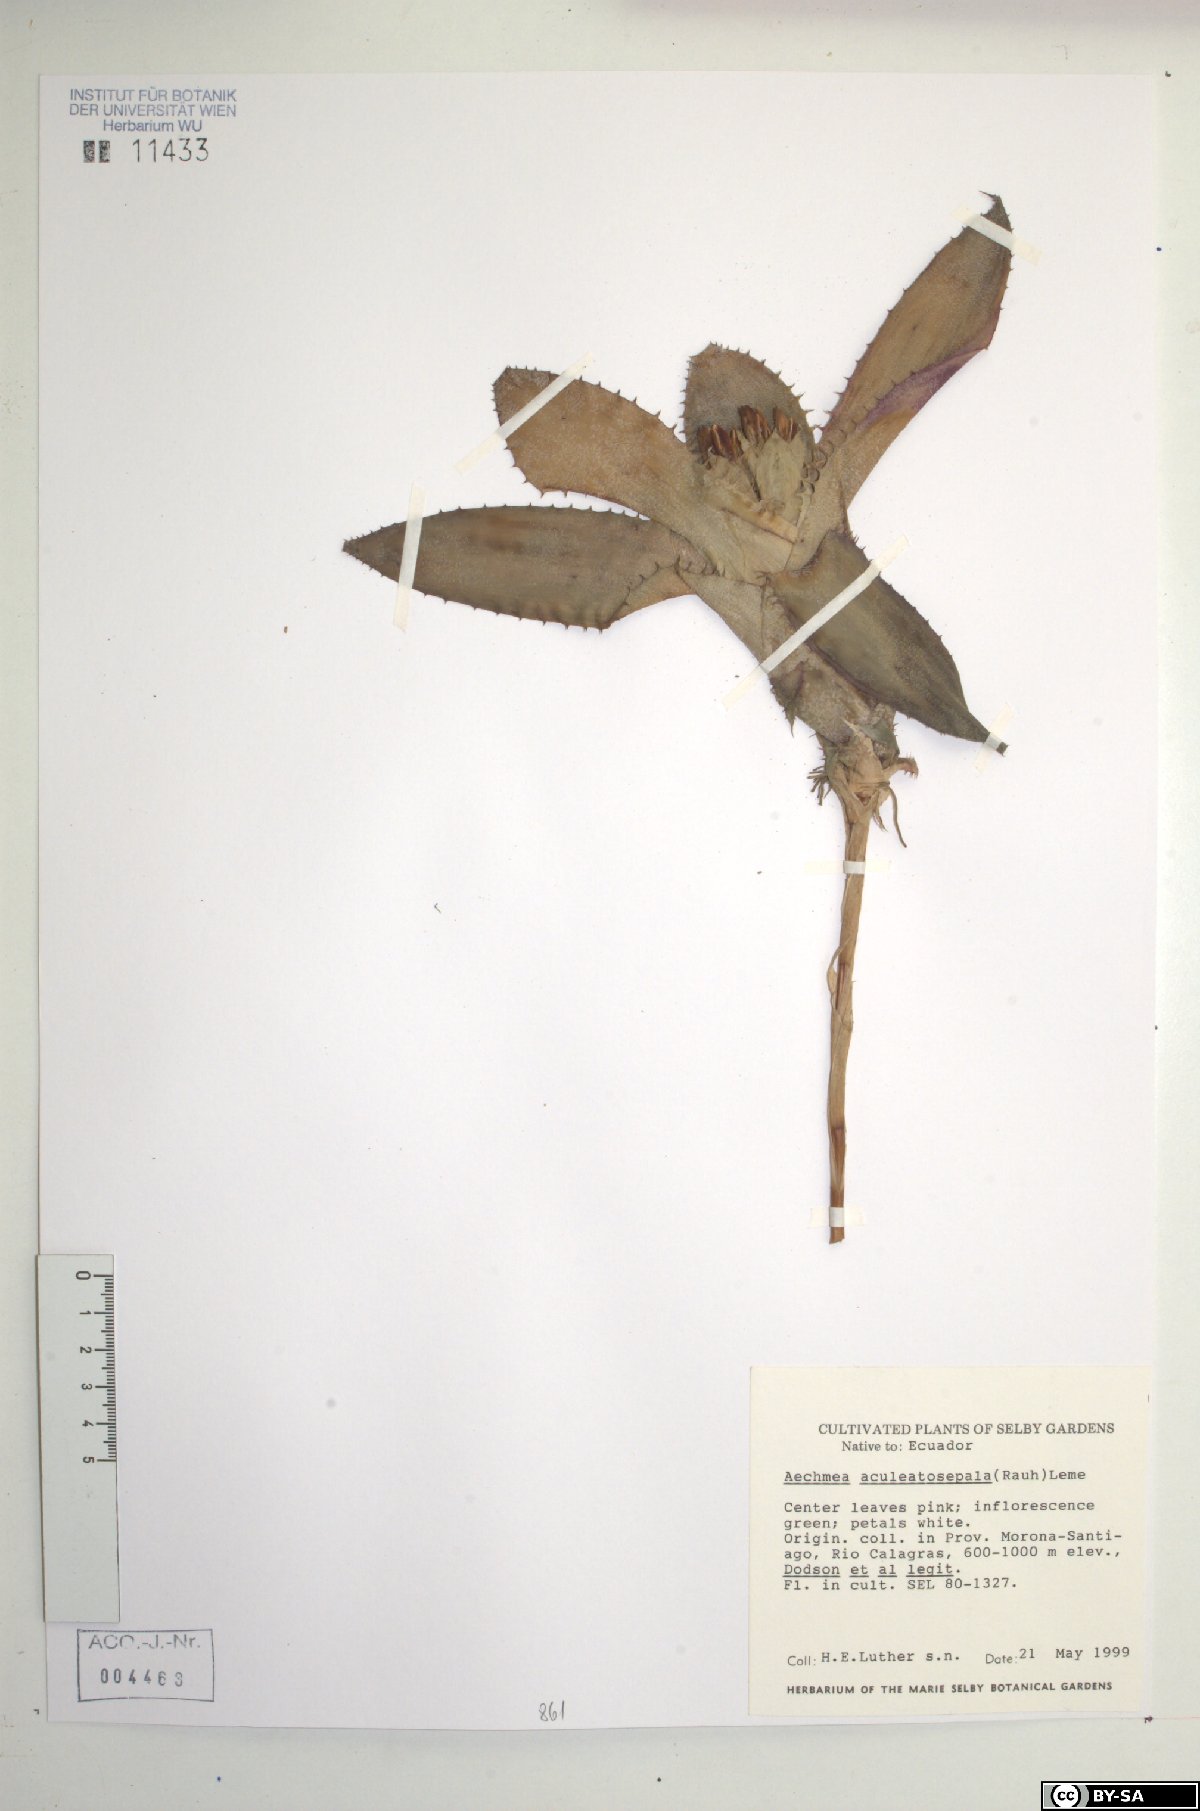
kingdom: Plantae
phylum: Tracheophyta
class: Liliopsida
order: Poales
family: Bromeliaceae
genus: Aechmea
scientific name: Aechmea aculeatosepala
